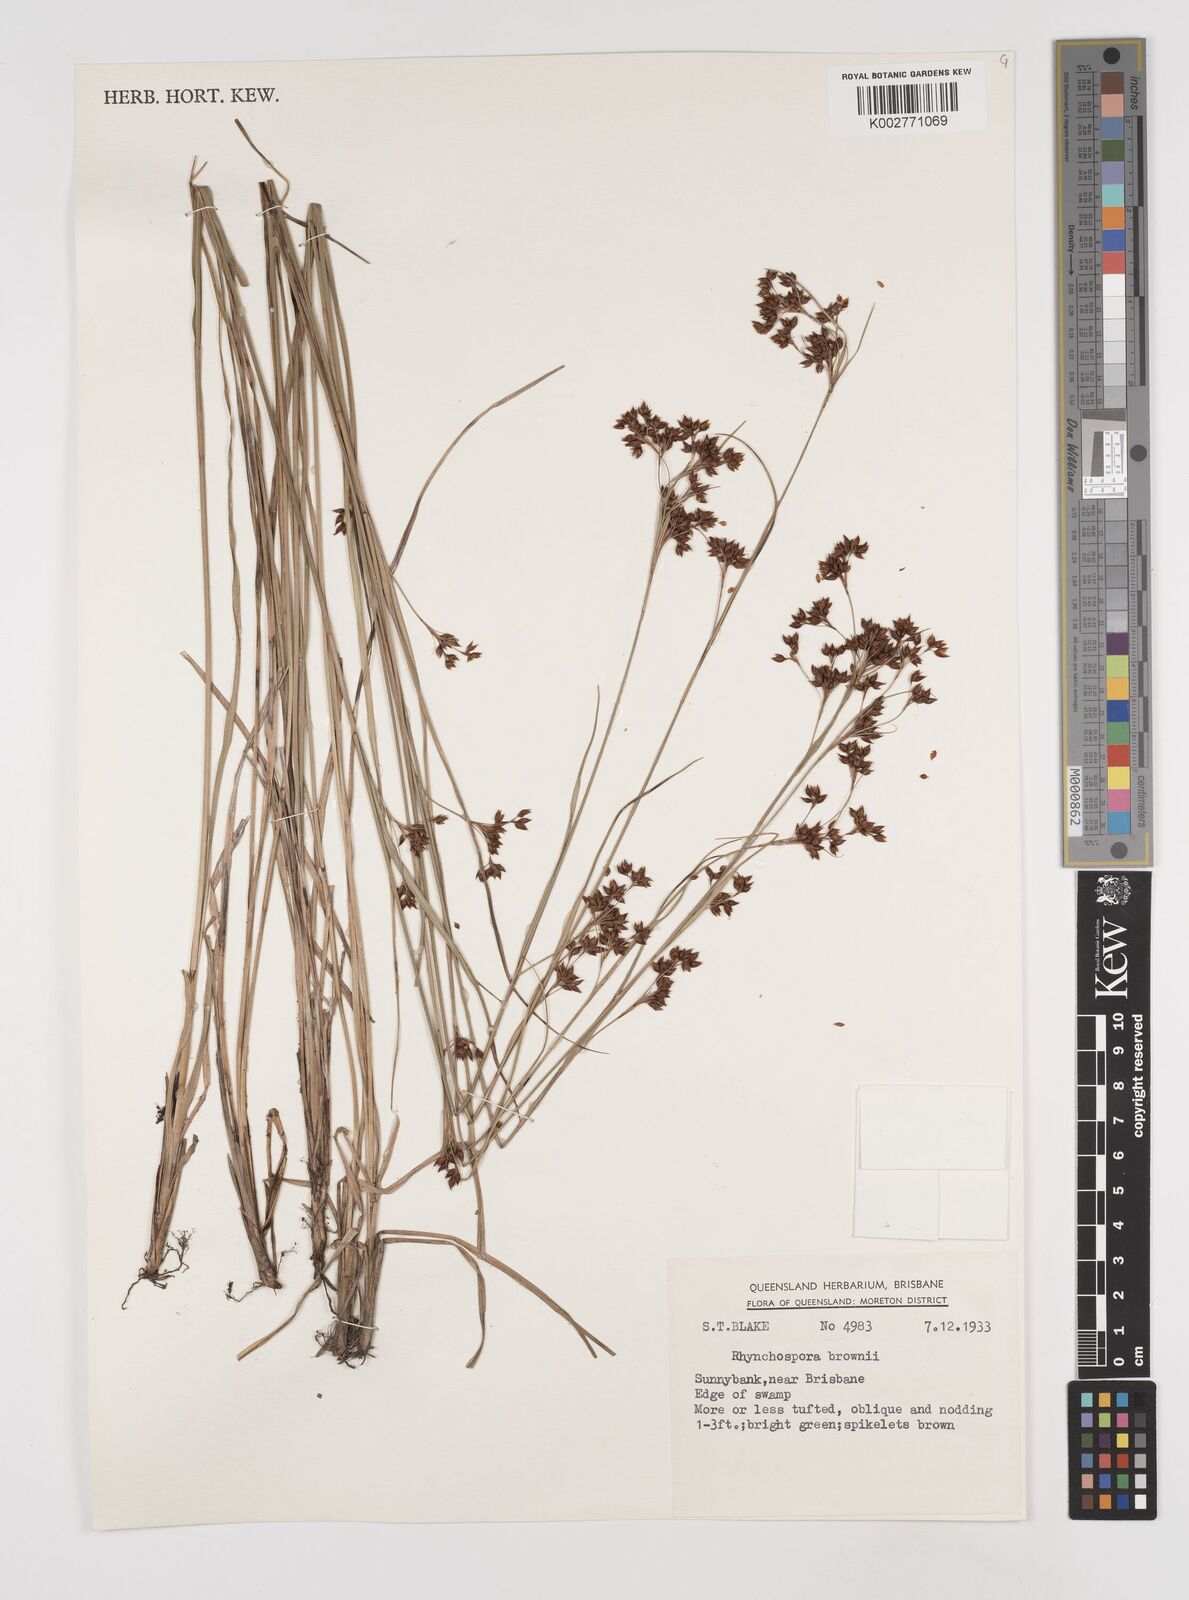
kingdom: Plantae
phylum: Tracheophyta
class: Liliopsida
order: Poales
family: Cyperaceae
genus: Rhynchospora
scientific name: Rhynchospora rugosa
